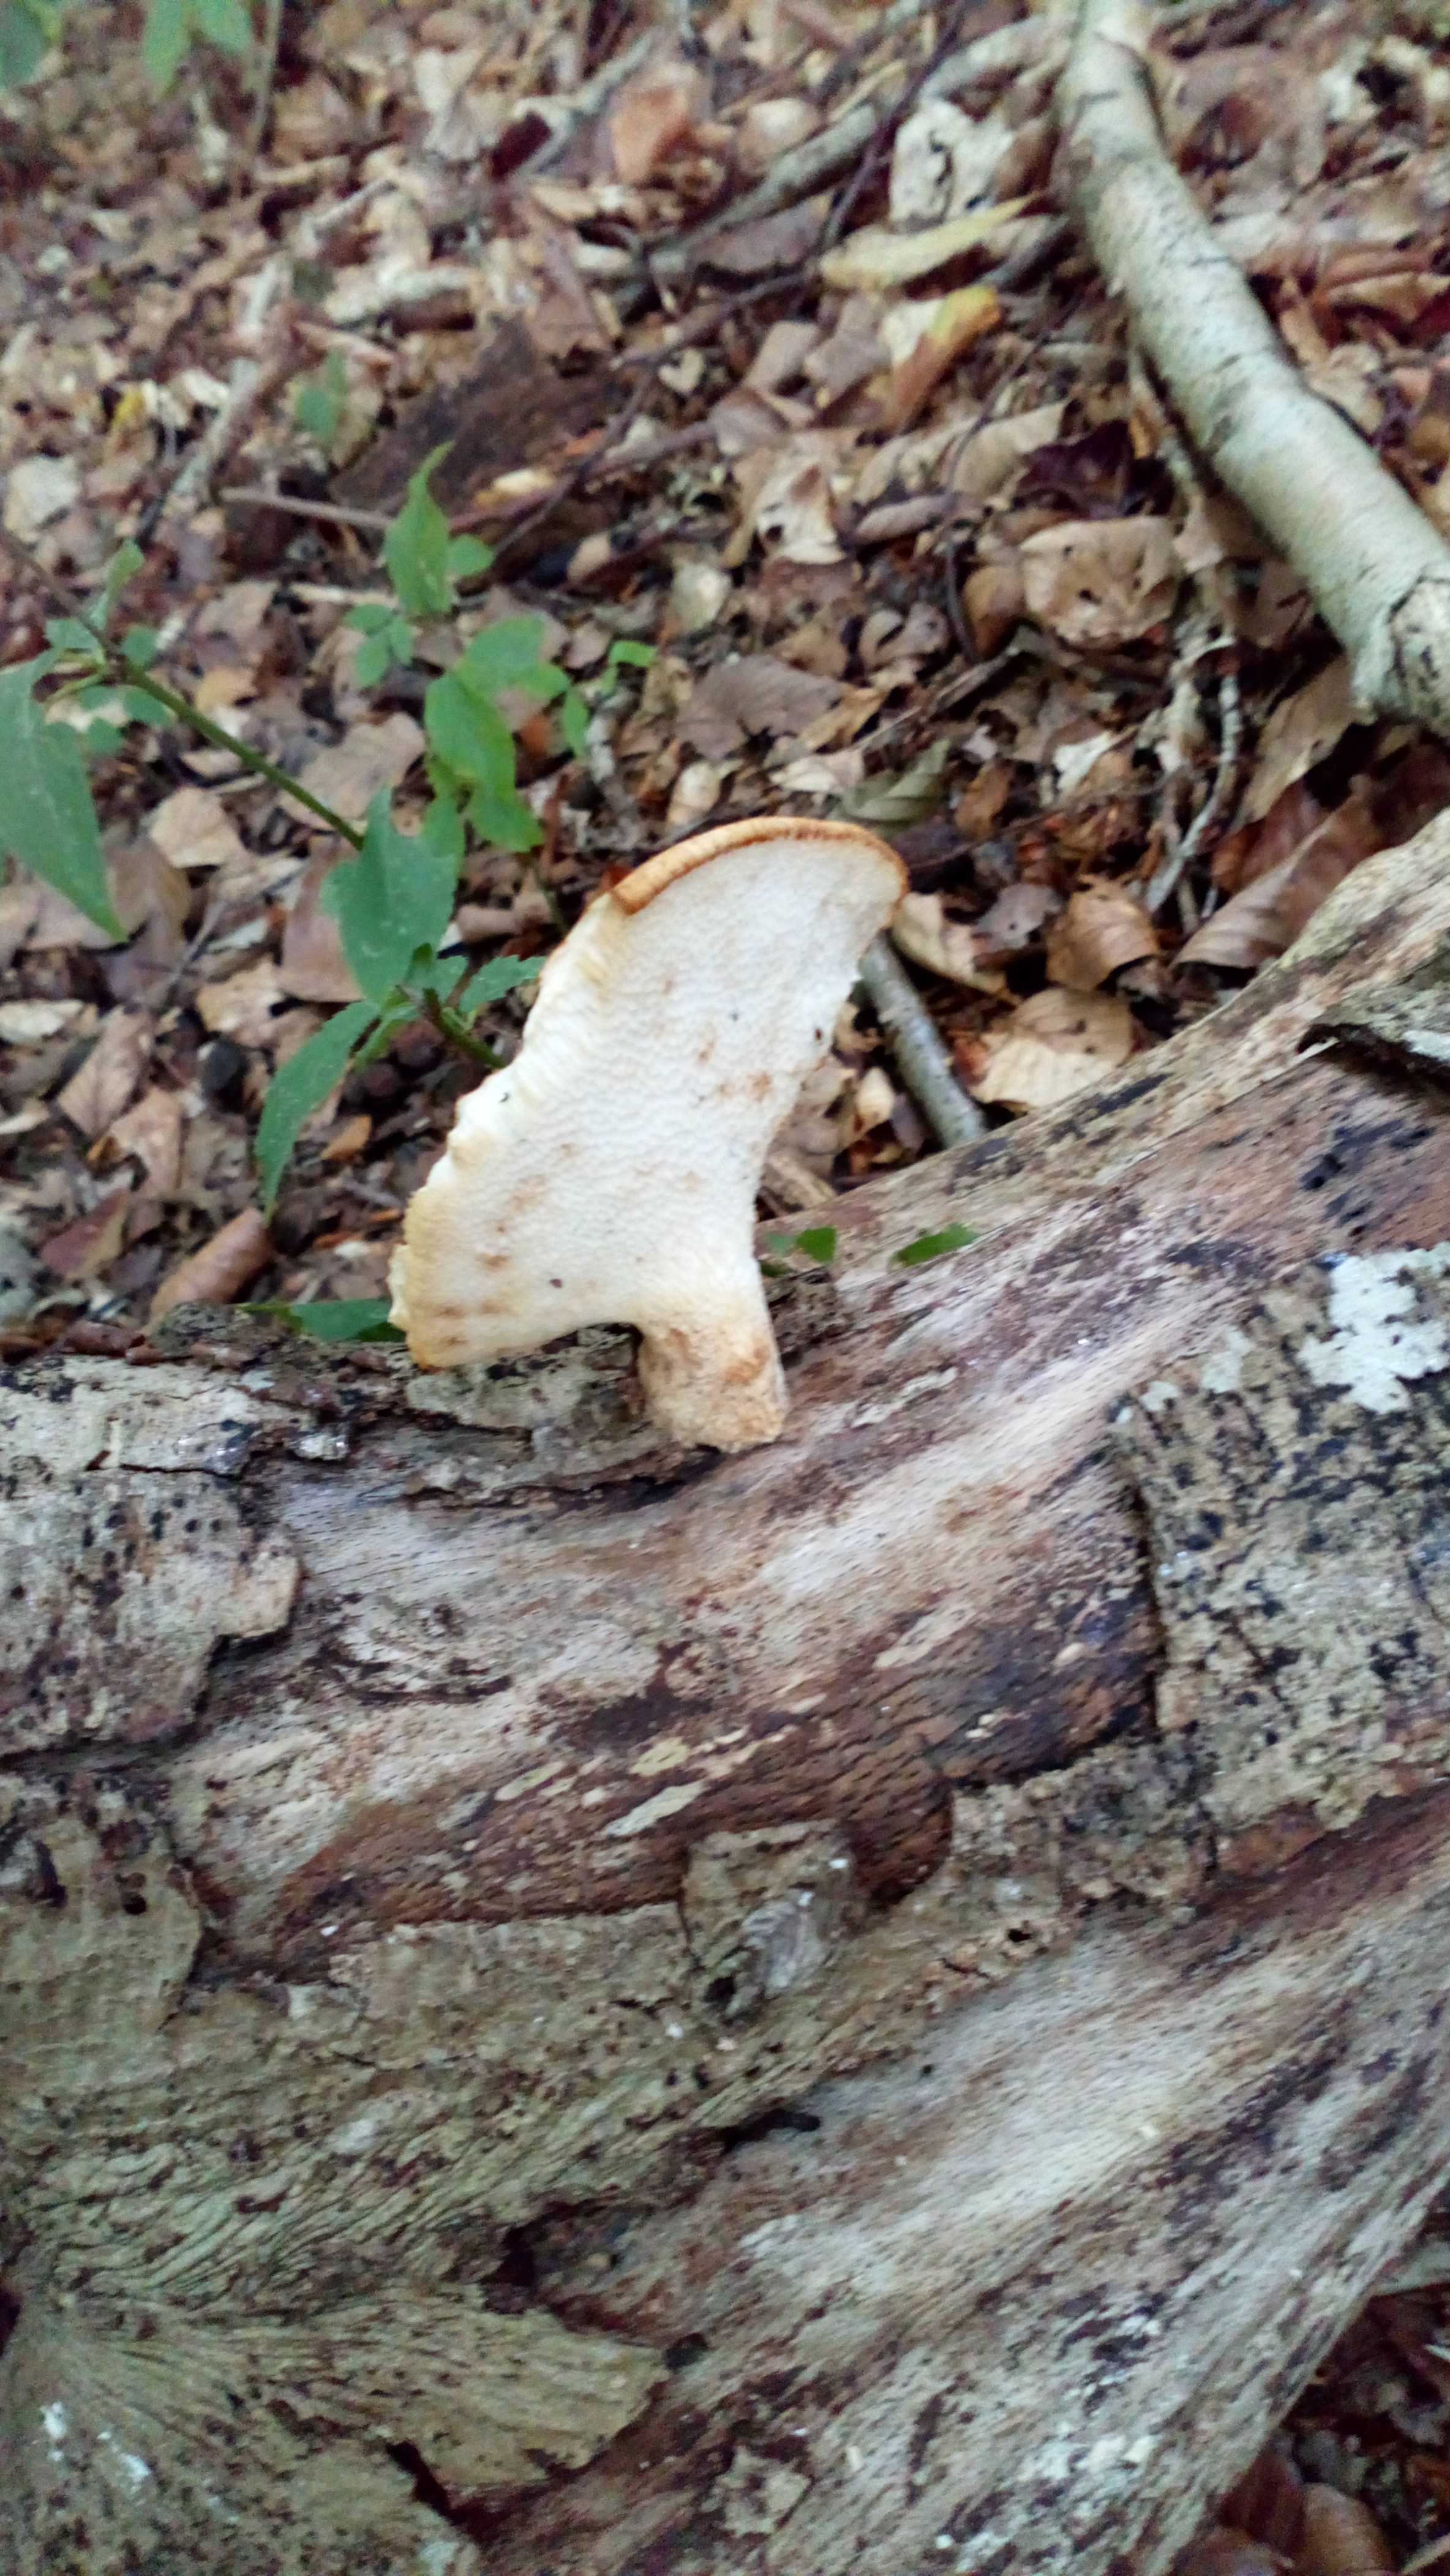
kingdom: Fungi
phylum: Basidiomycota
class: Agaricomycetes
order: Polyporales
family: Polyporaceae
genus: Cerioporus
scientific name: Cerioporus varius
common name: foranderlig stilkporesvamp
